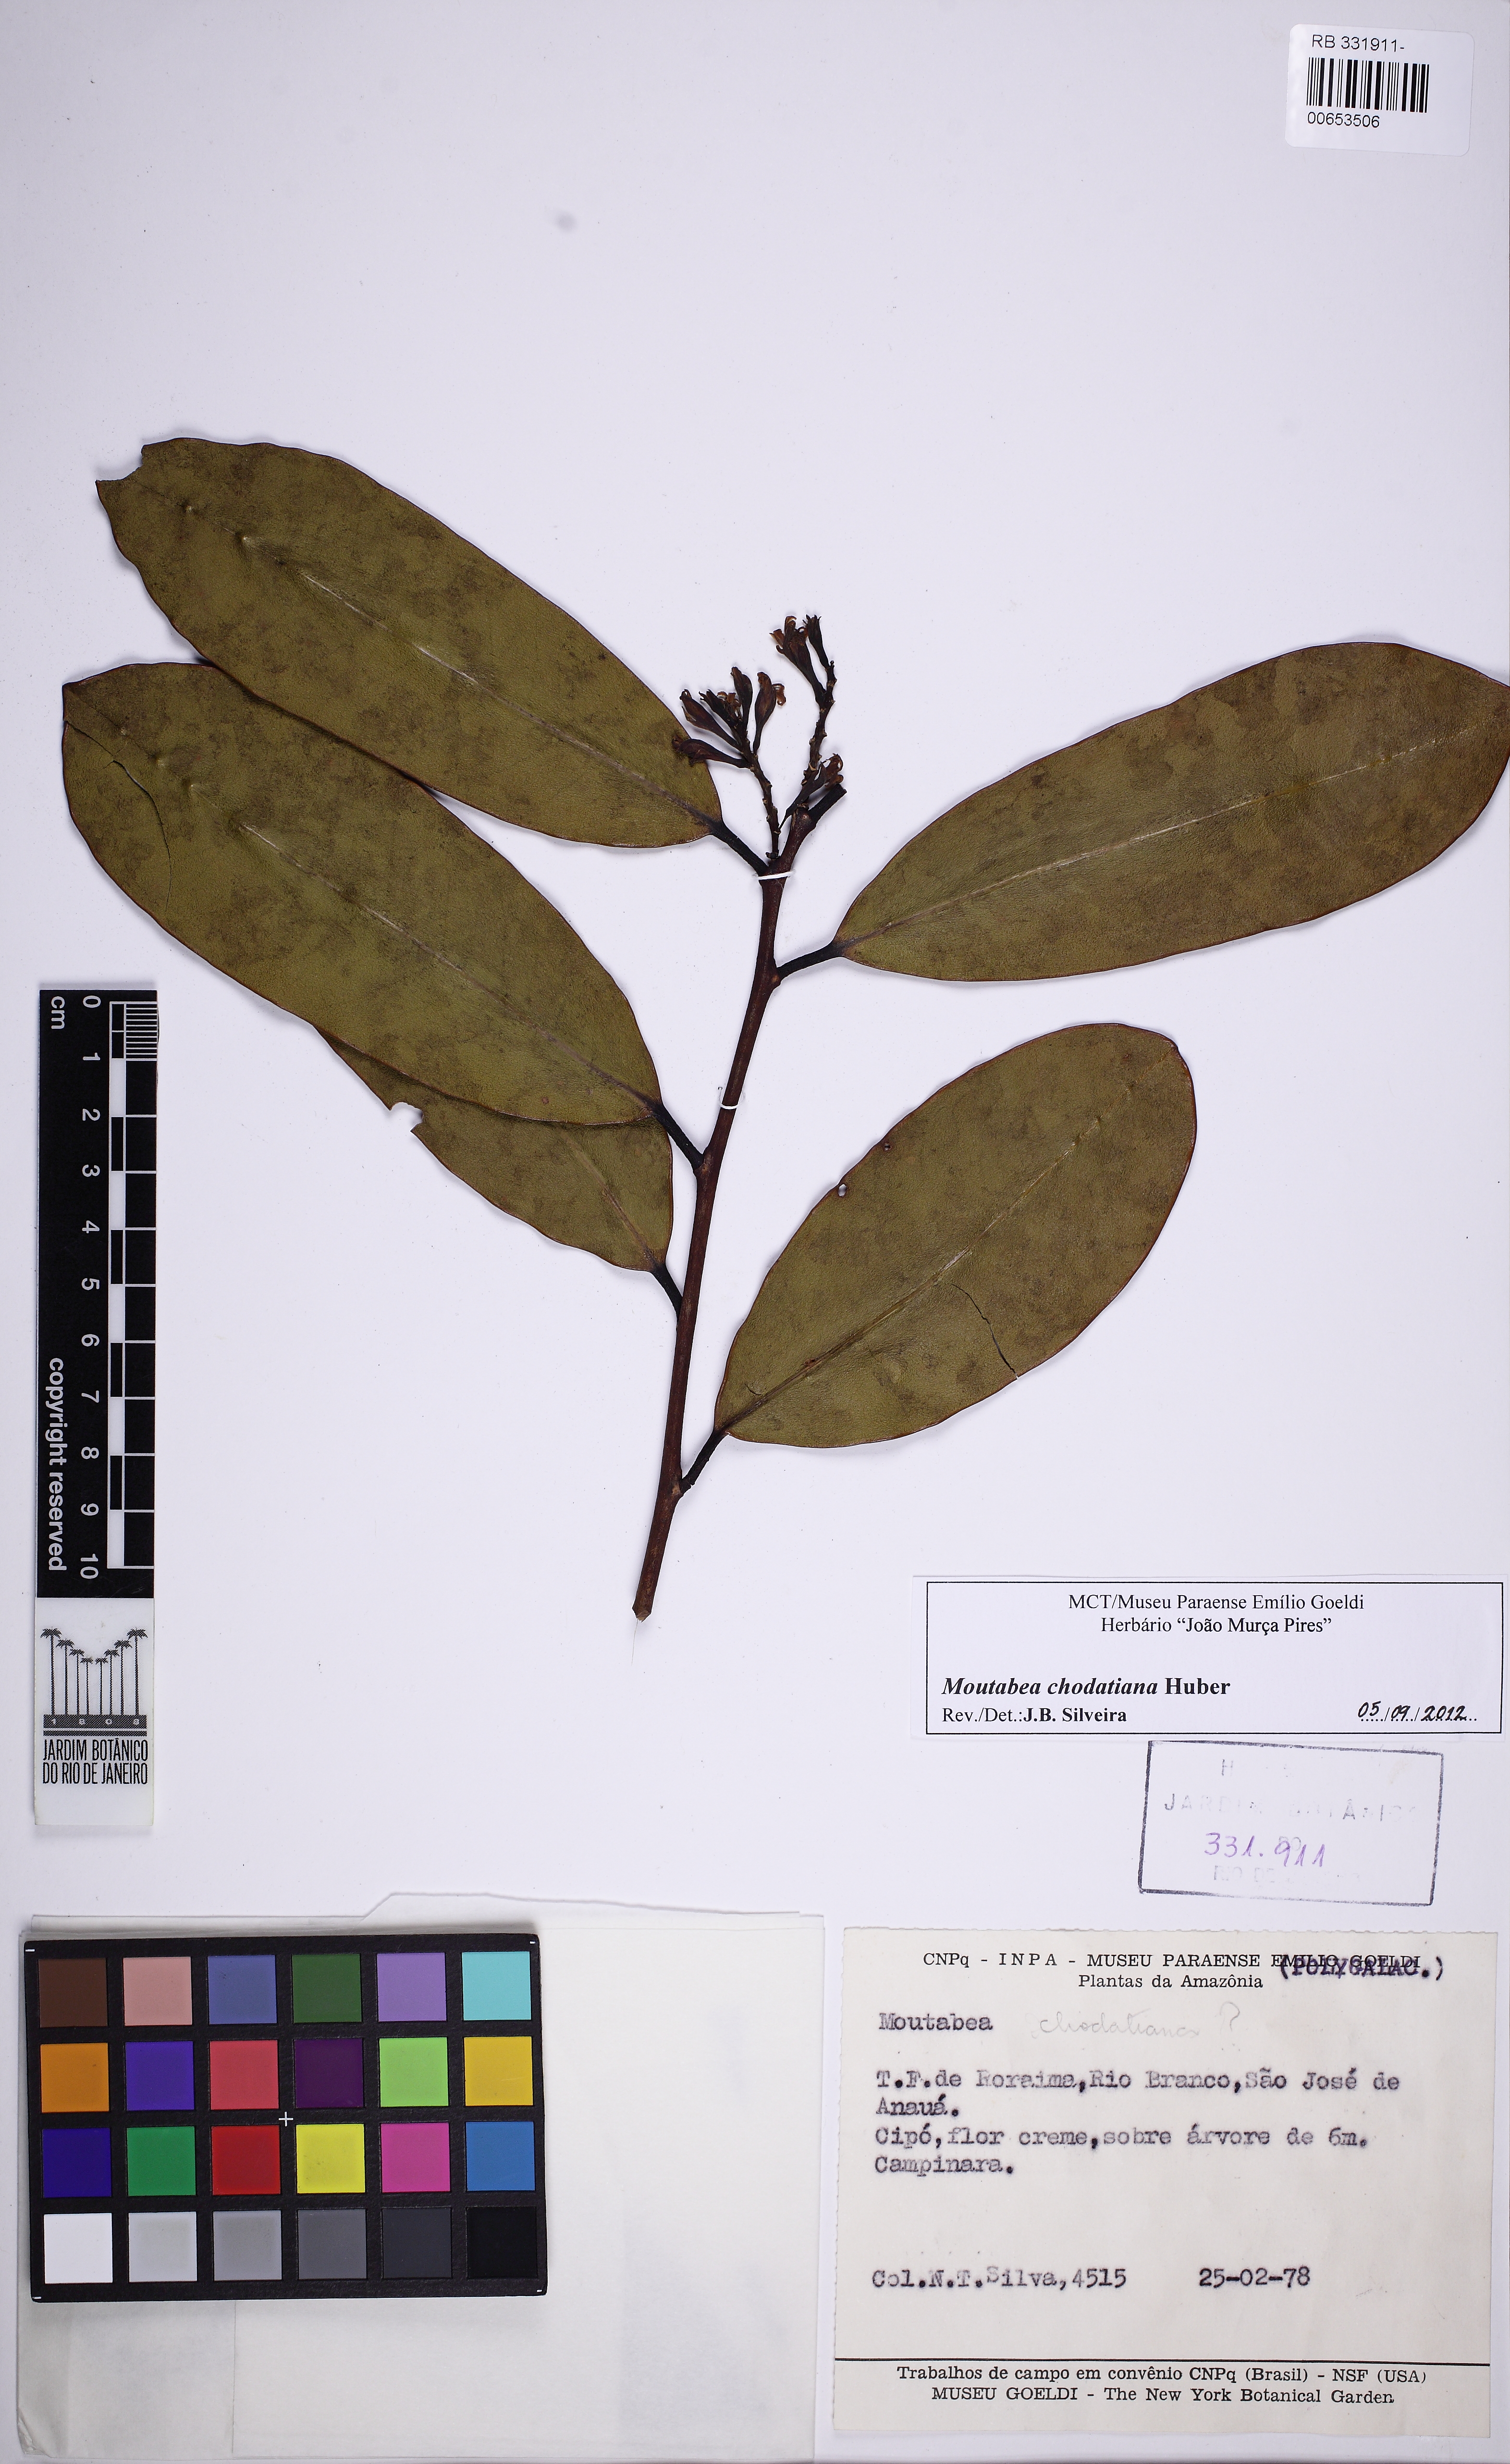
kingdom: Plantae
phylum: Tracheophyta
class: Magnoliopsida
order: Fabales
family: Polygalaceae
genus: Moutabea
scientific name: Moutabea chodatiana
